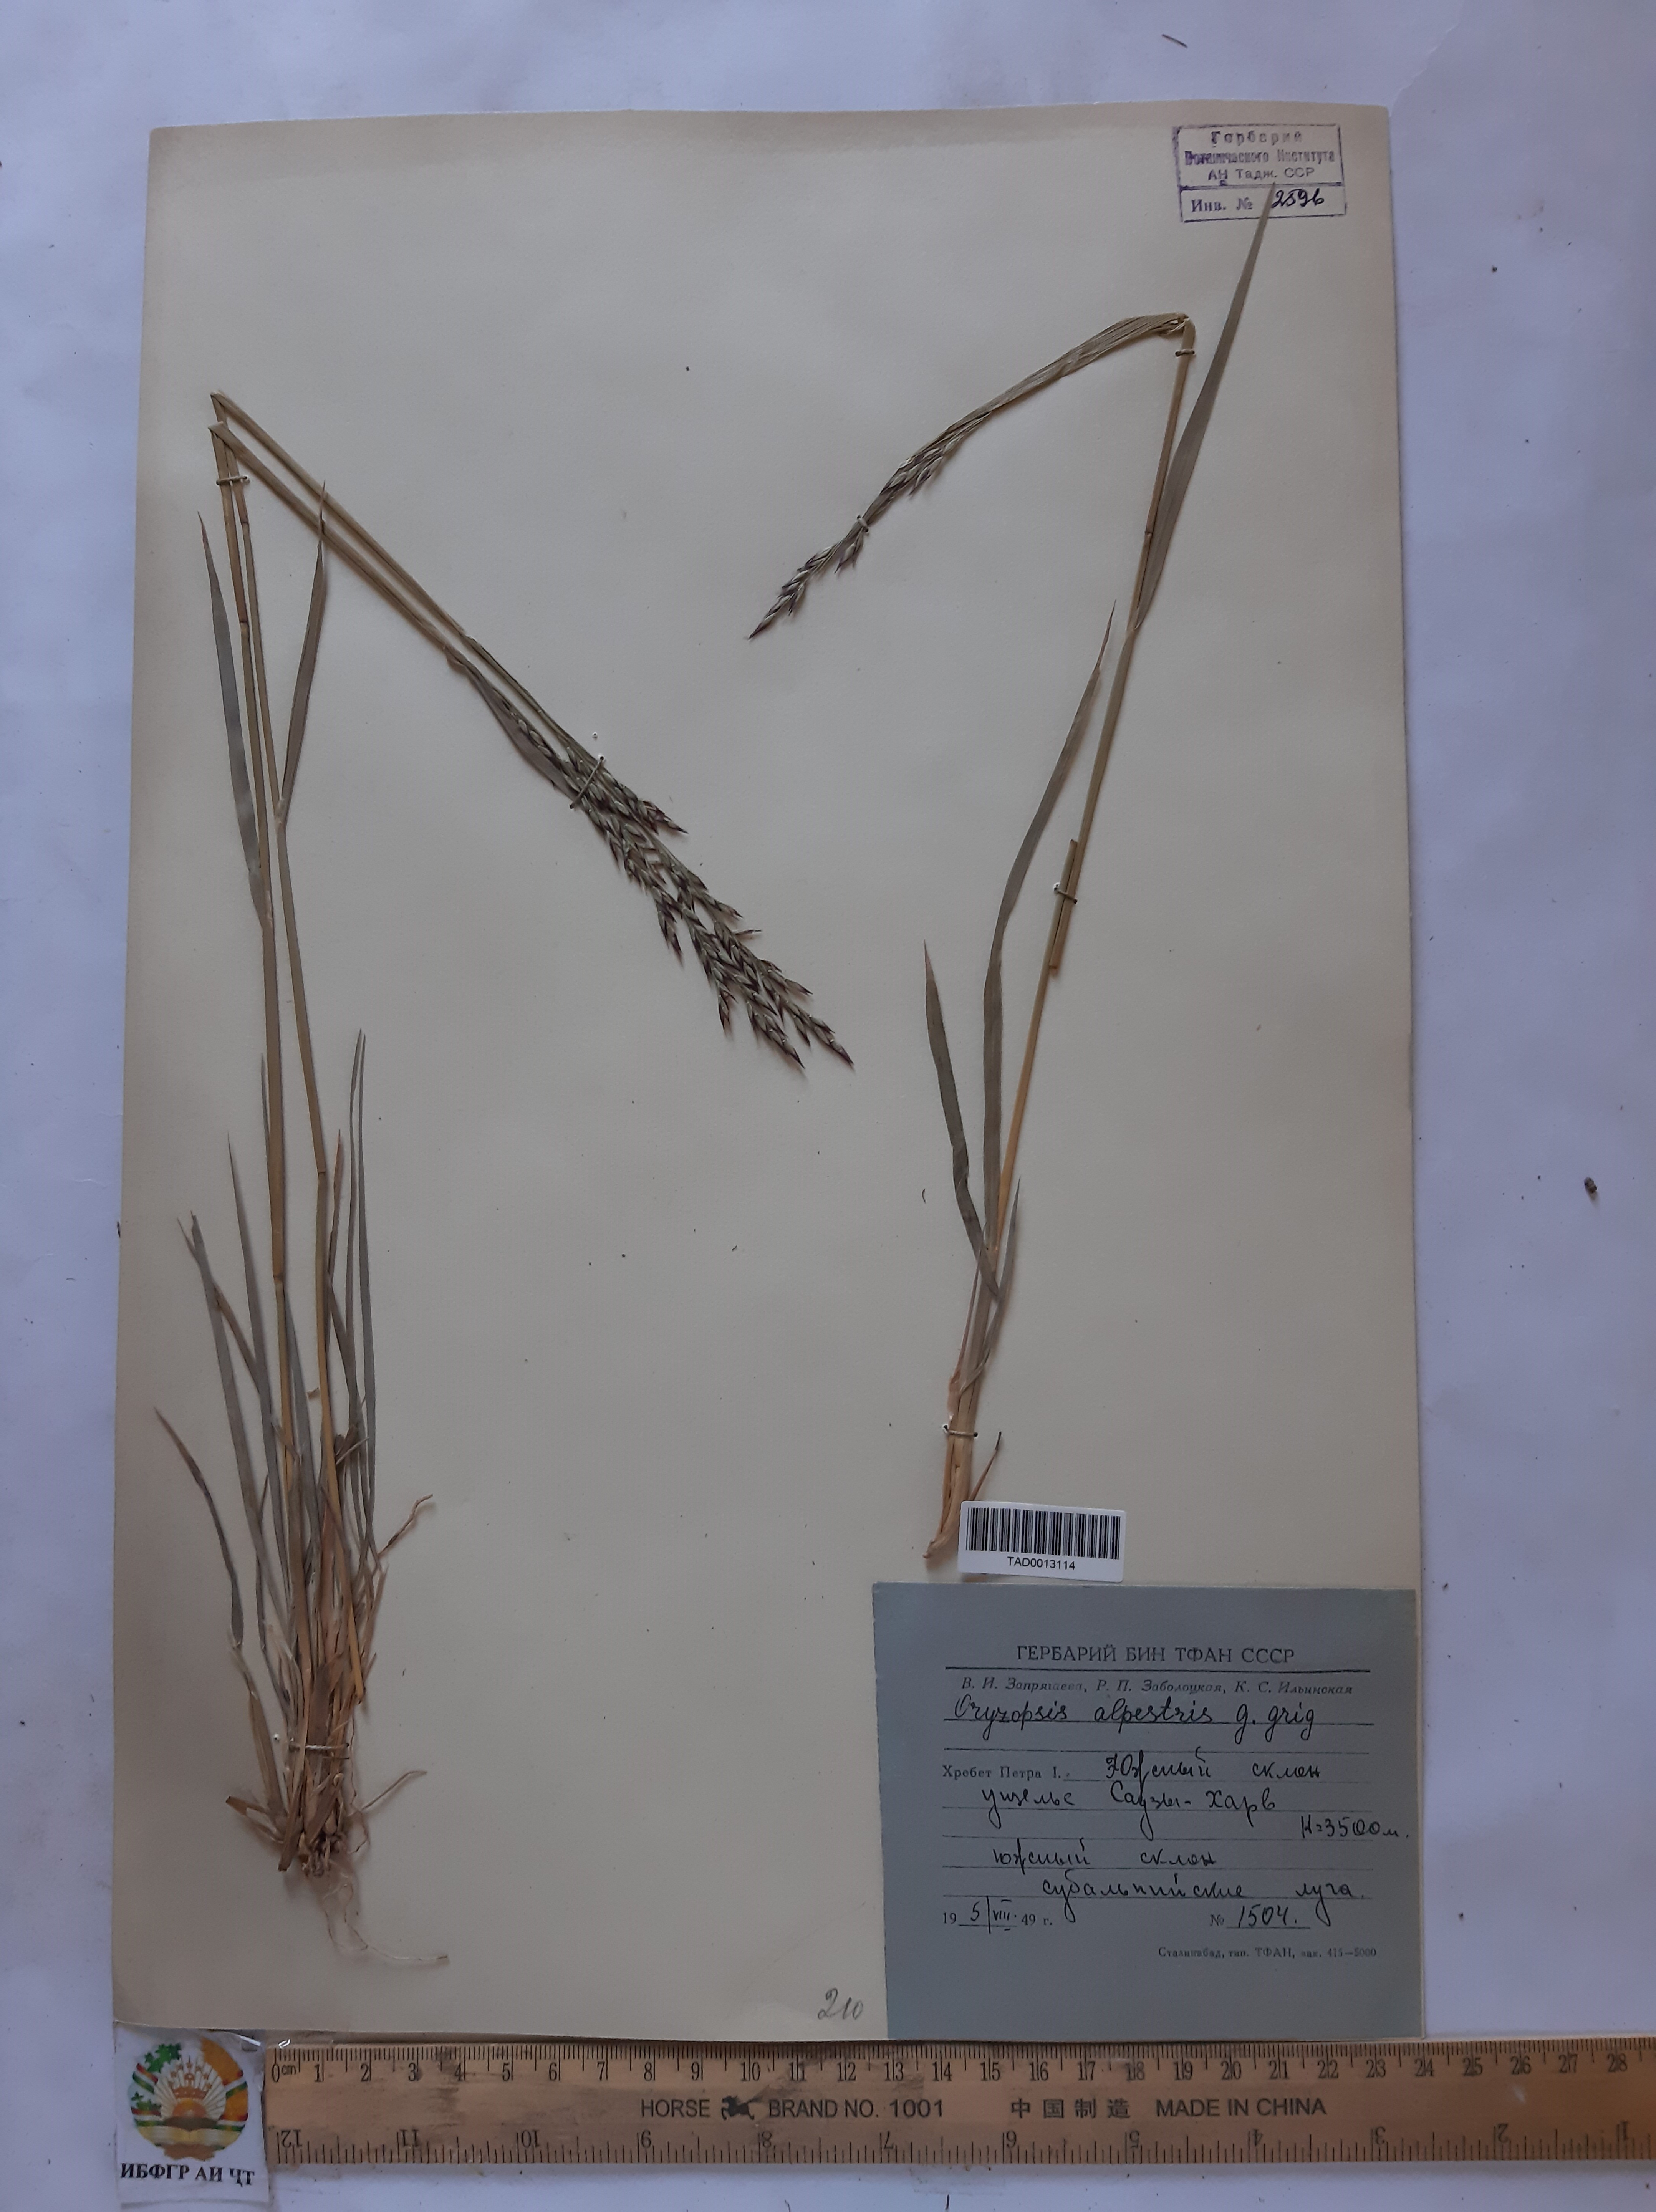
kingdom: Plantae
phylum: Tracheophyta
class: Liliopsida
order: Poales
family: Poaceae
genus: Piptatherum
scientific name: Piptatherum alpestre
